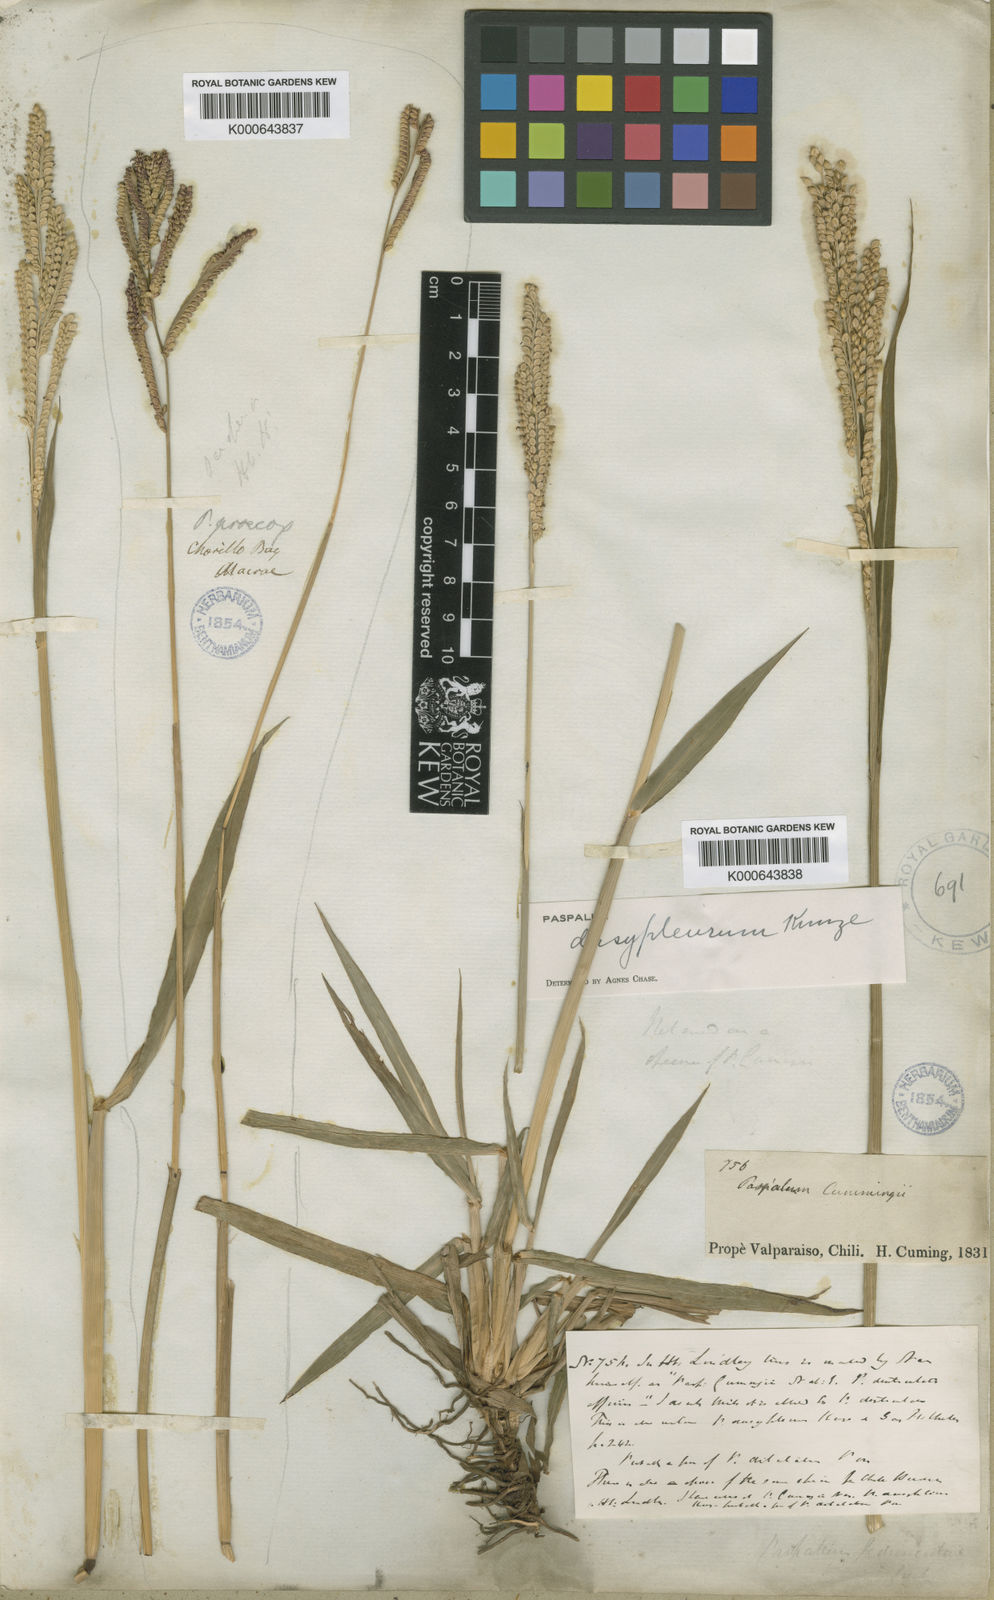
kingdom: Plantae
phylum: Tracheophyta
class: Liliopsida
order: Poales
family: Poaceae
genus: Paspalum
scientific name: Paspalum dasypleurum
